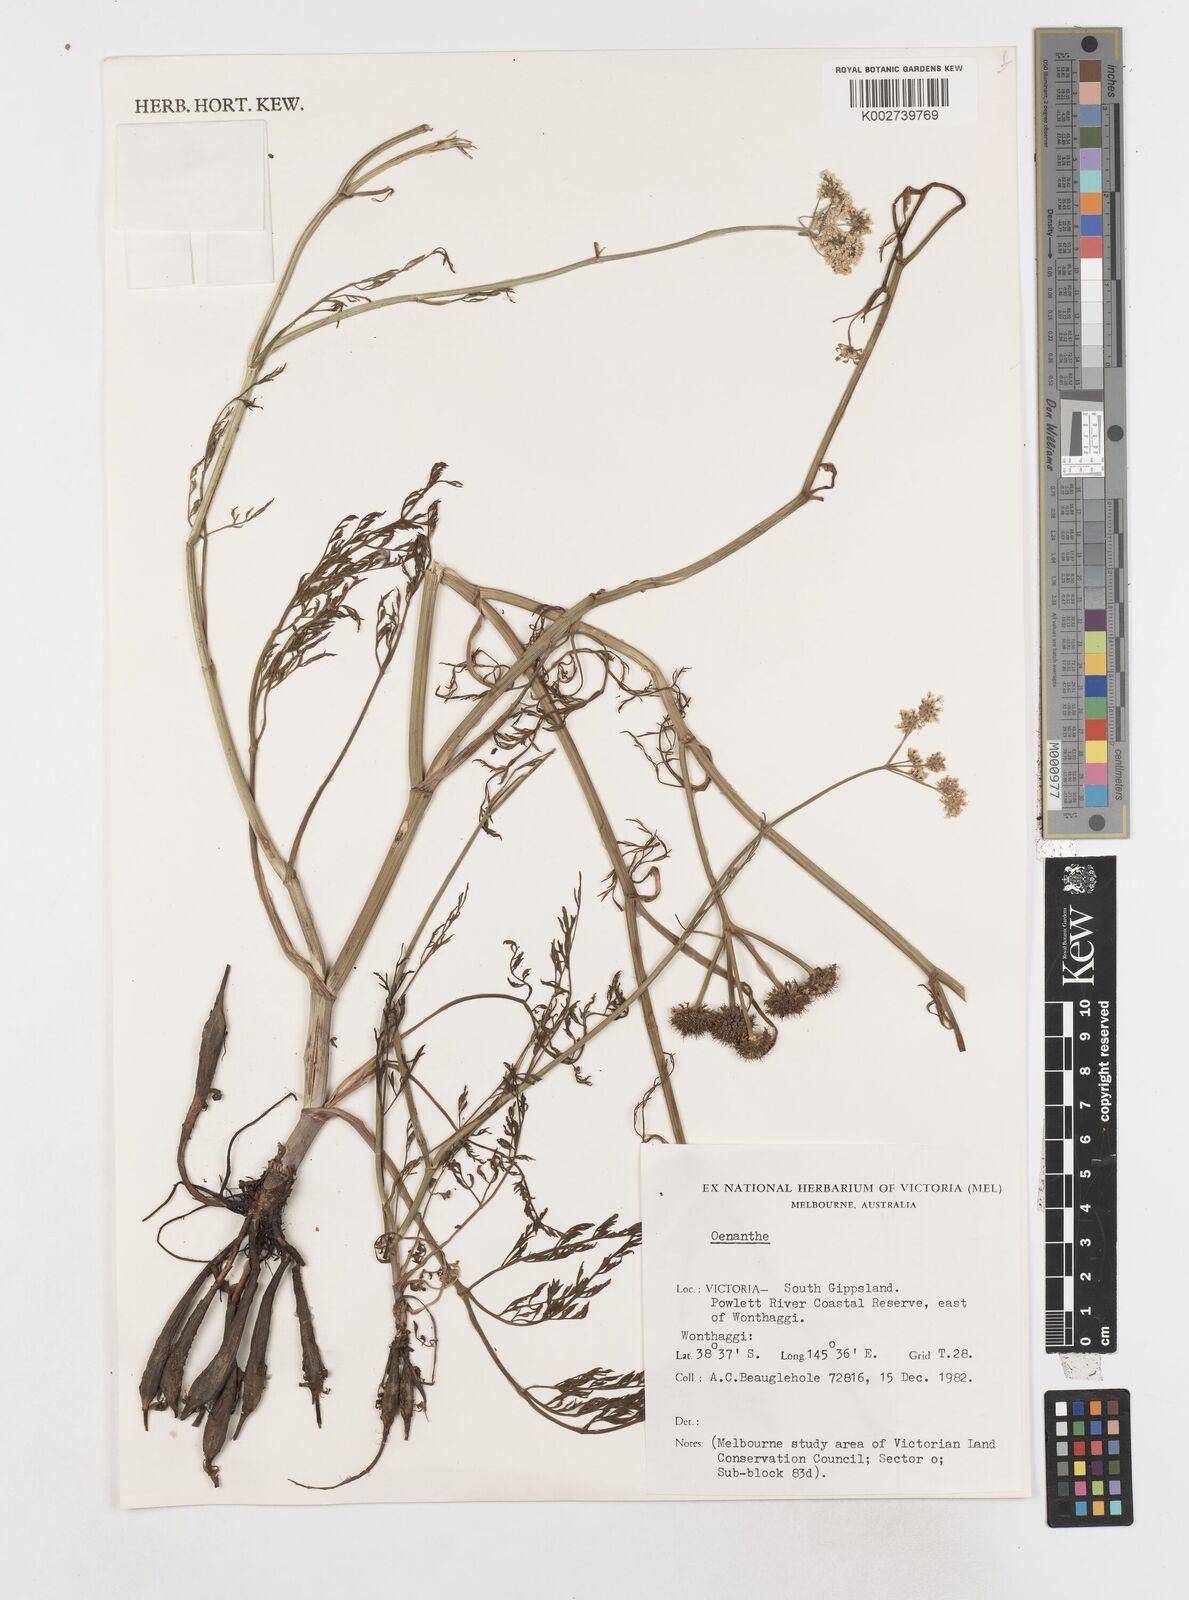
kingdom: Plantae
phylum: Tracheophyta
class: Magnoliopsida
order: Apiales
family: Apiaceae
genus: Oenanthe
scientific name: Oenanthe
